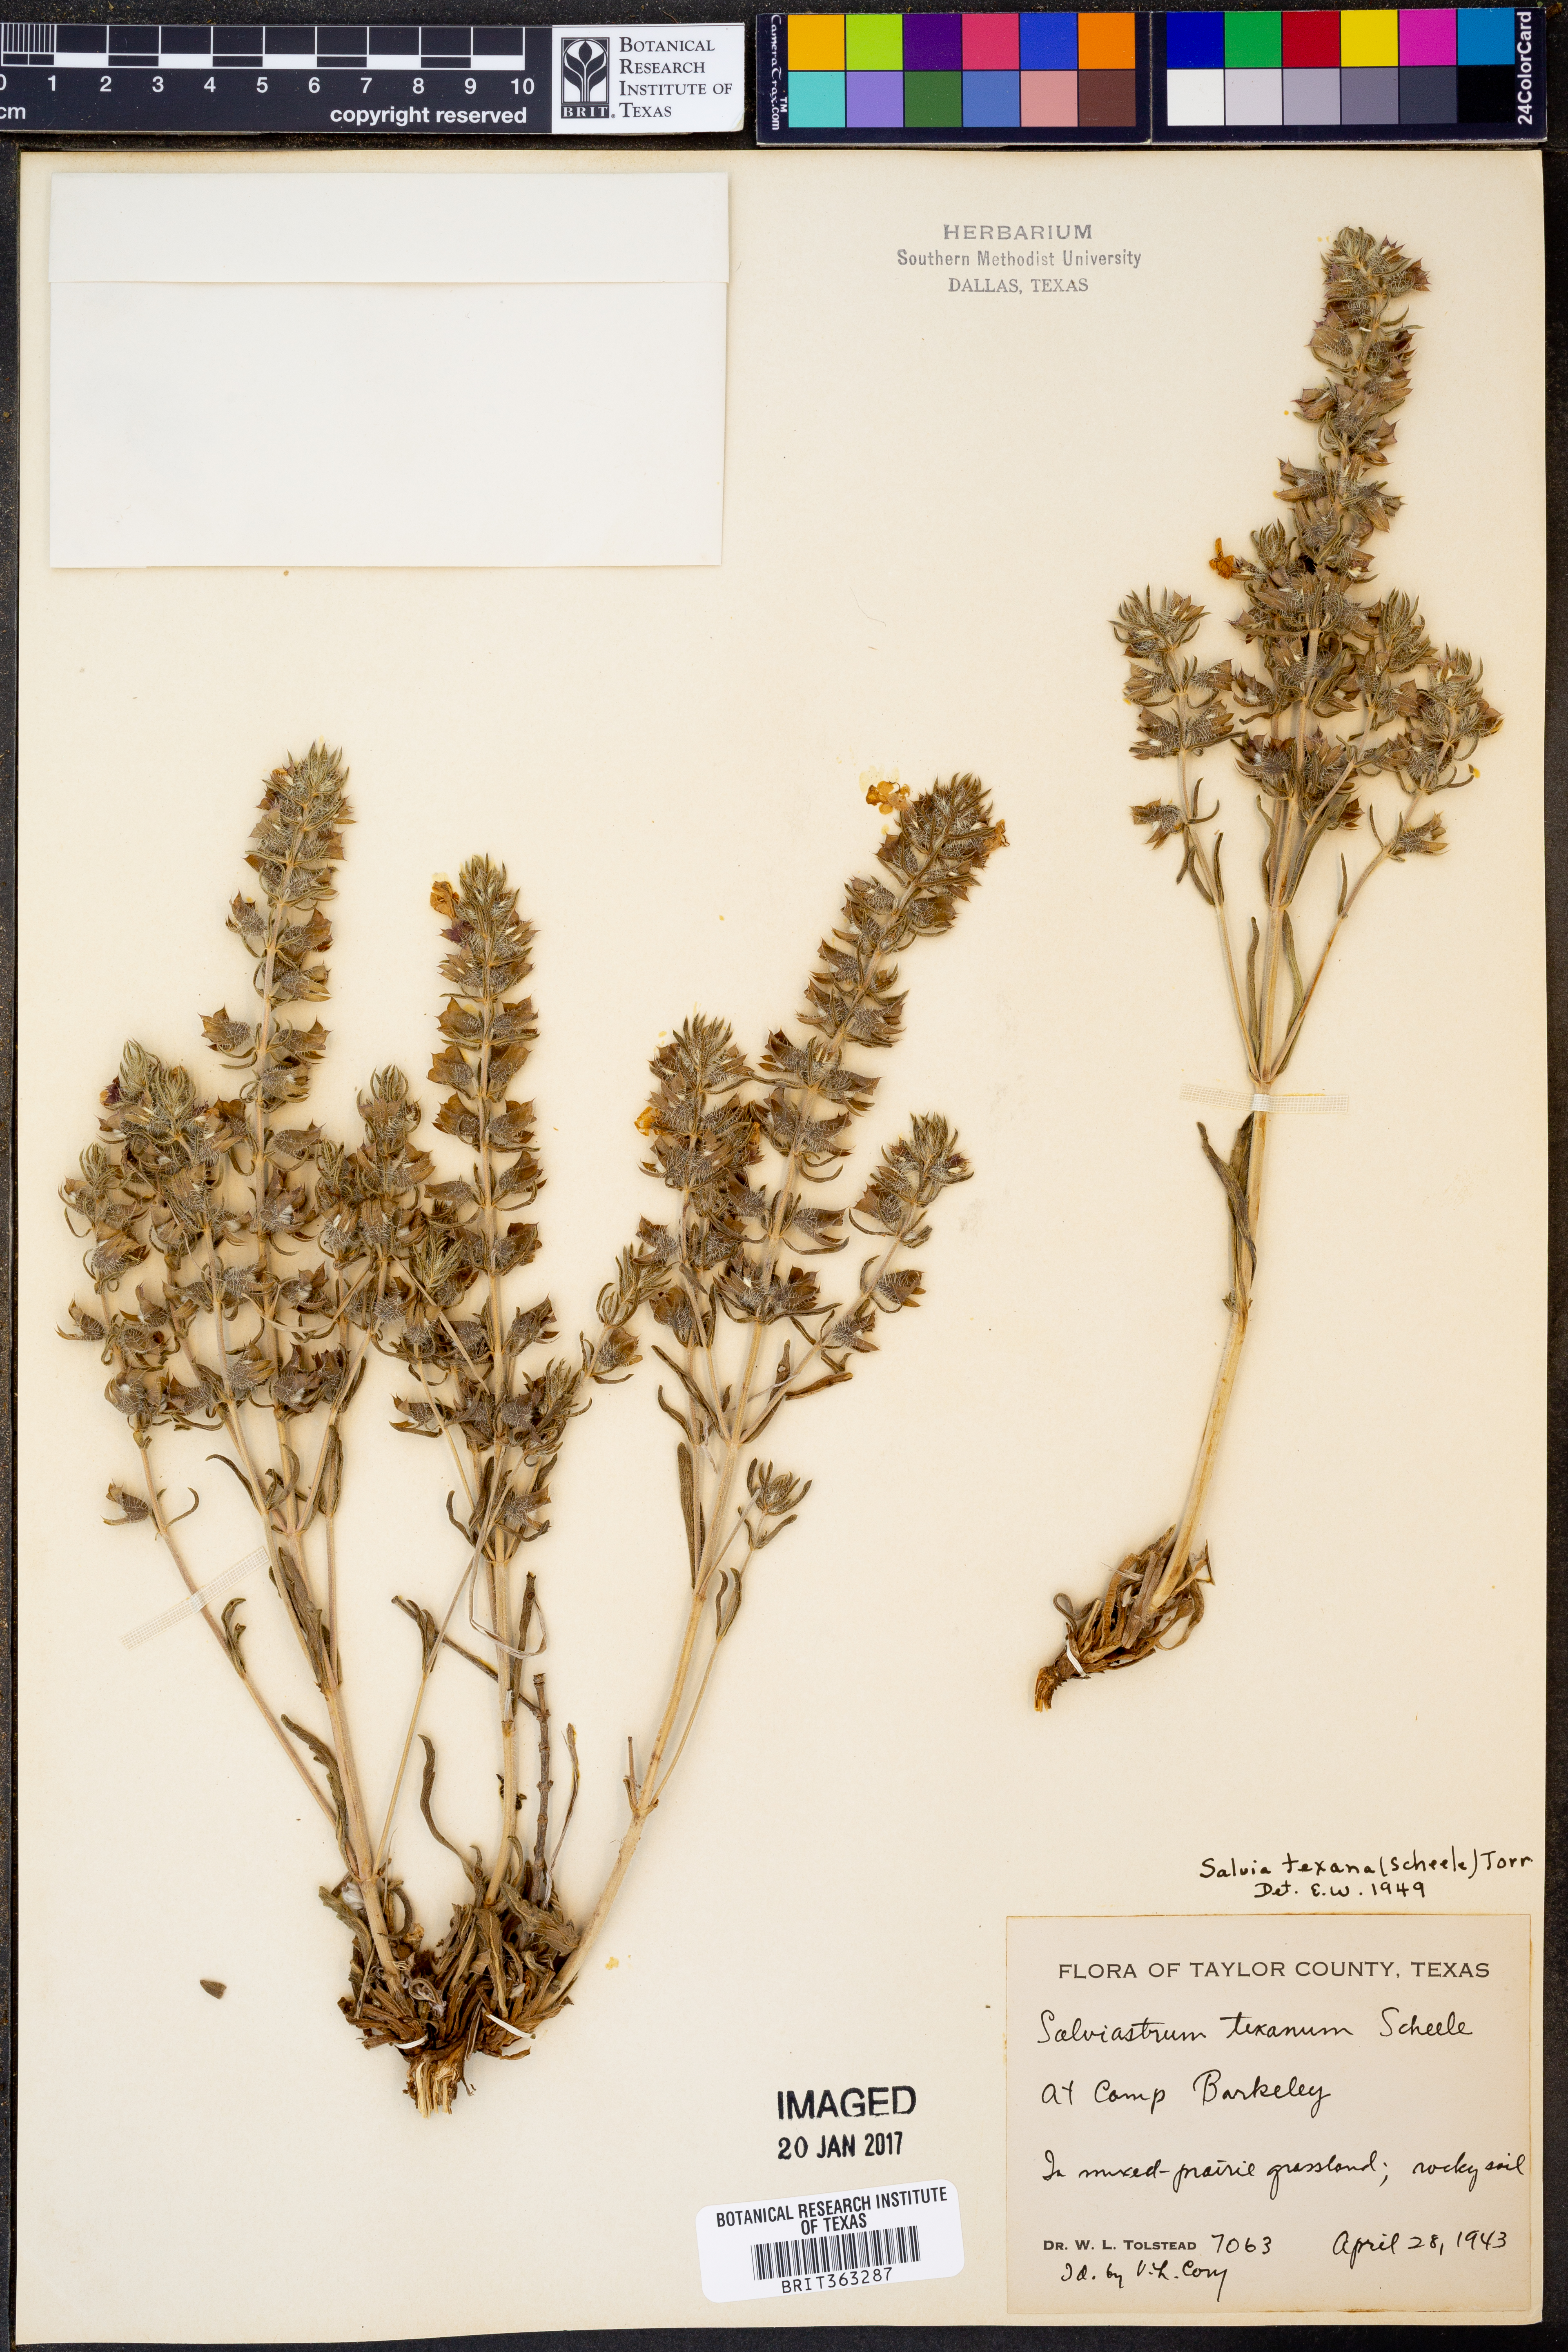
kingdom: Plantae
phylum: Tracheophyta
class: Magnoliopsida
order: Lamiales
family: Lamiaceae
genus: Salvia
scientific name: Salvia texana
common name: Texas sage
